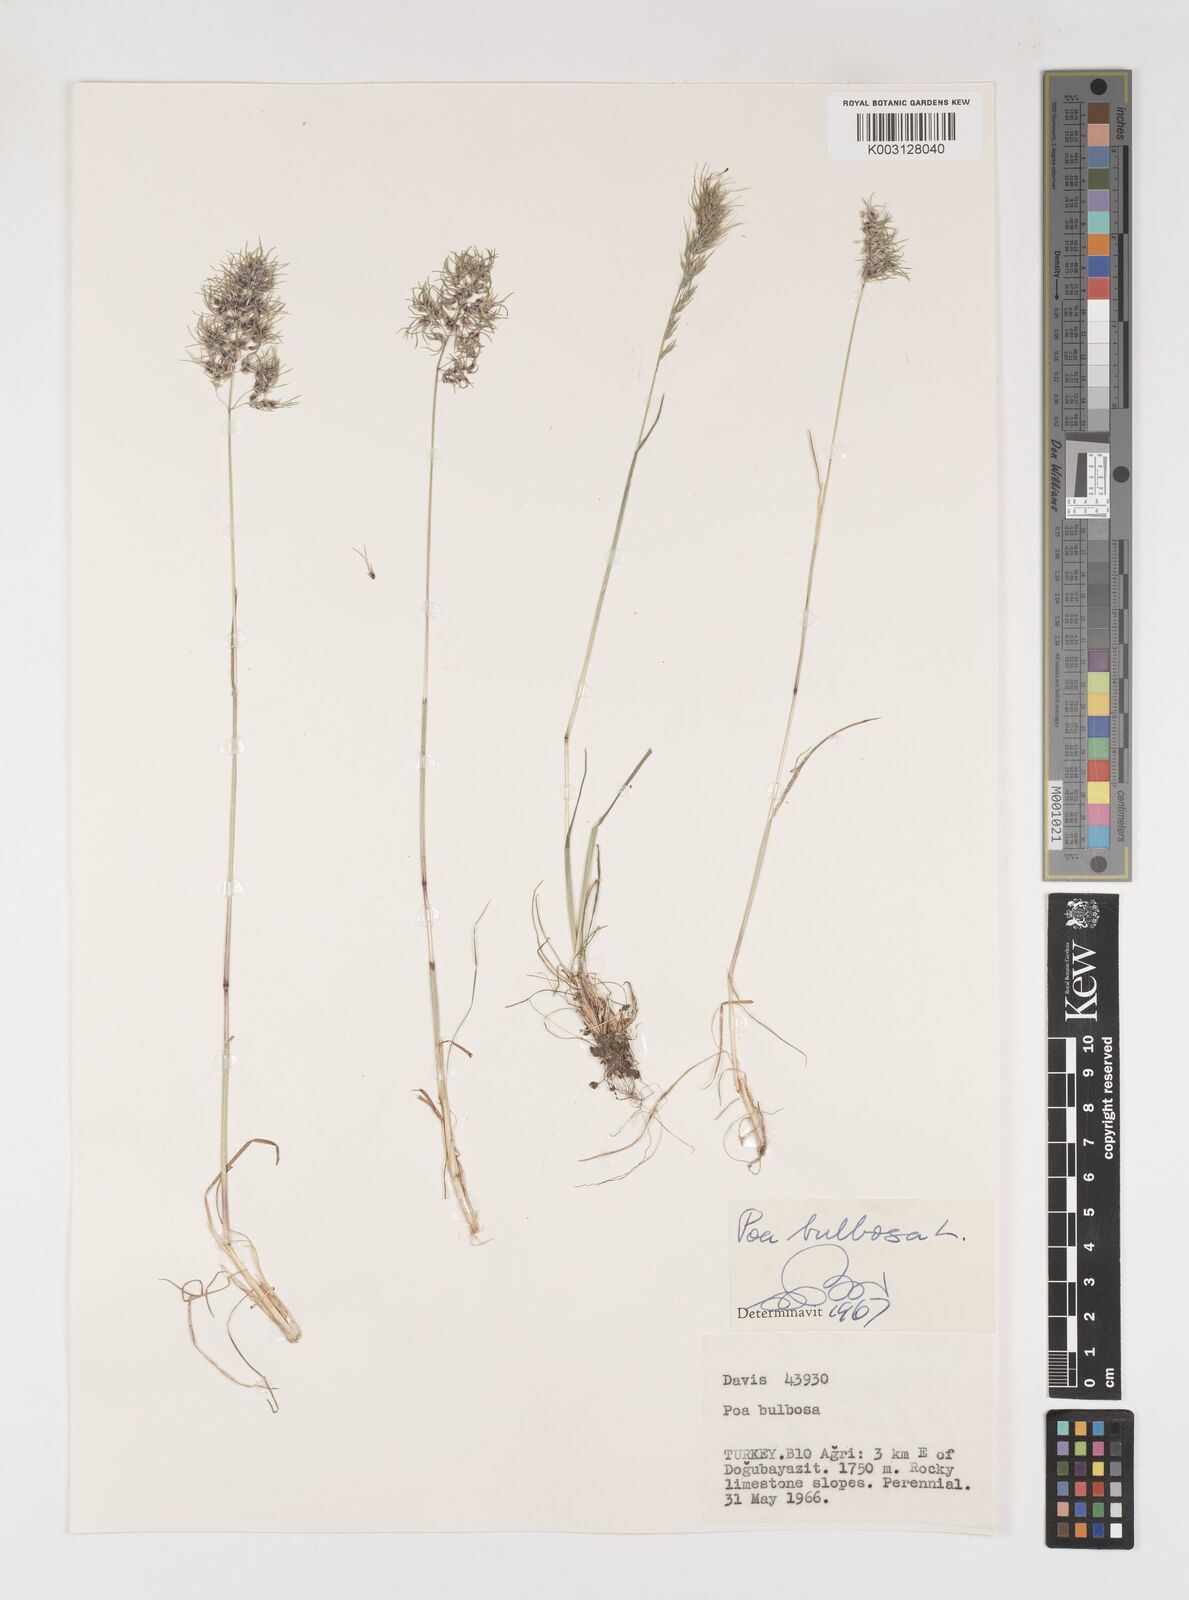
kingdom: Plantae
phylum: Tracheophyta
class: Liliopsida
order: Poales
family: Poaceae
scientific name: Poaceae
